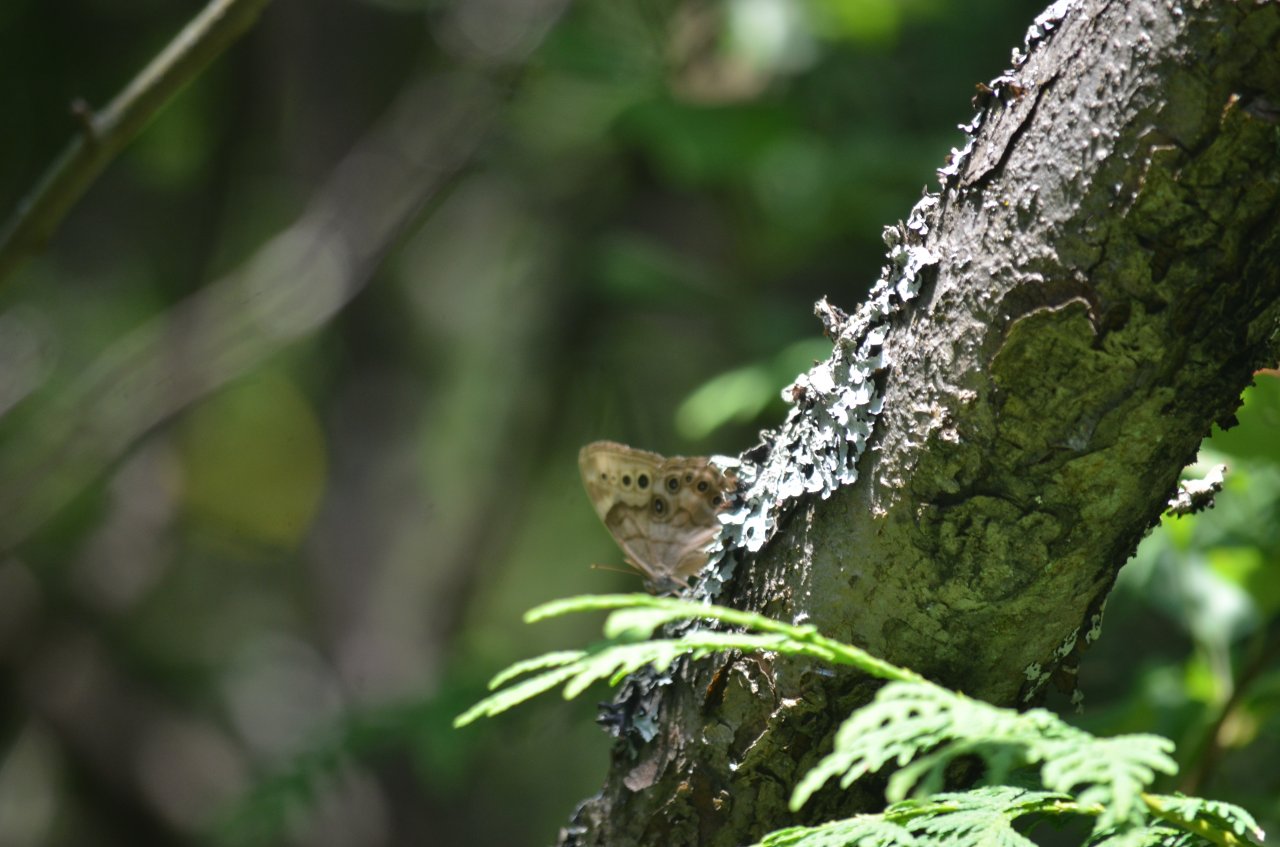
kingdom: Animalia
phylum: Arthropoda
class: Insecta
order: Lepidoptera
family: Nymphalidae
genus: Lethe
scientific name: Lethe anthedon
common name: Northern Pearly-Eye
